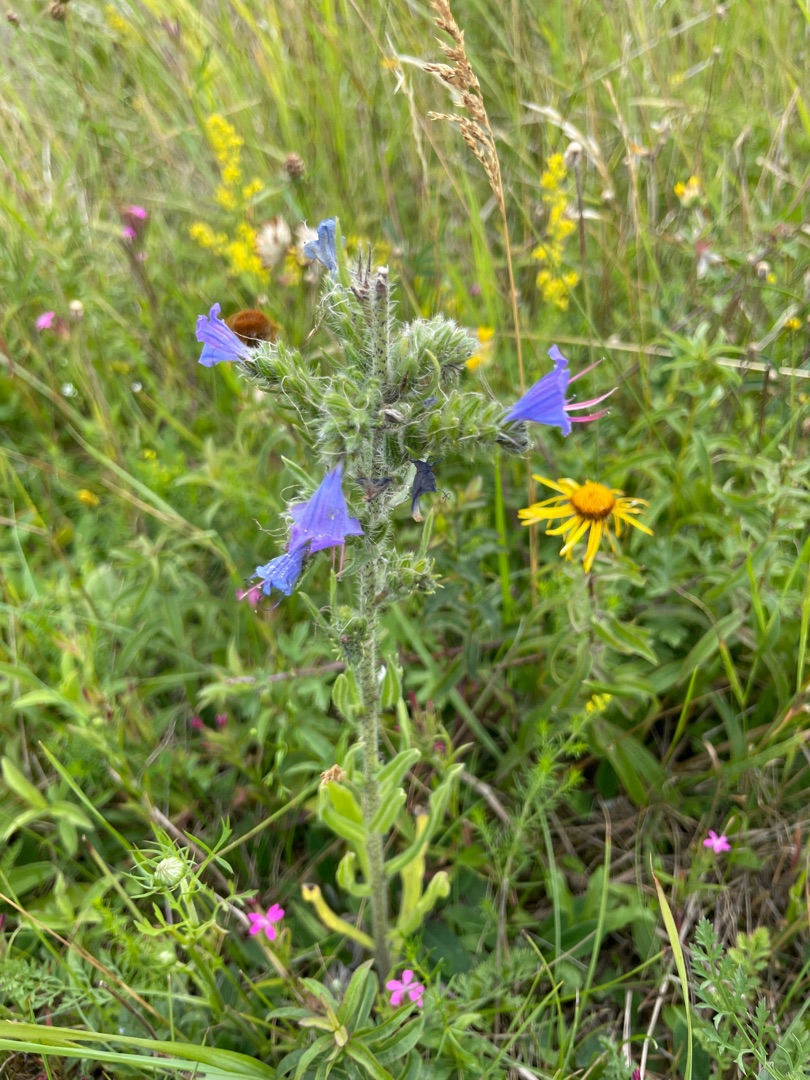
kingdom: Plantae
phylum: Tracheophyta
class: Magnoliopsida
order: Boraginales
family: Boraginaceae
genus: Echium
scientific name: Echium vulgare
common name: Slangehoved
